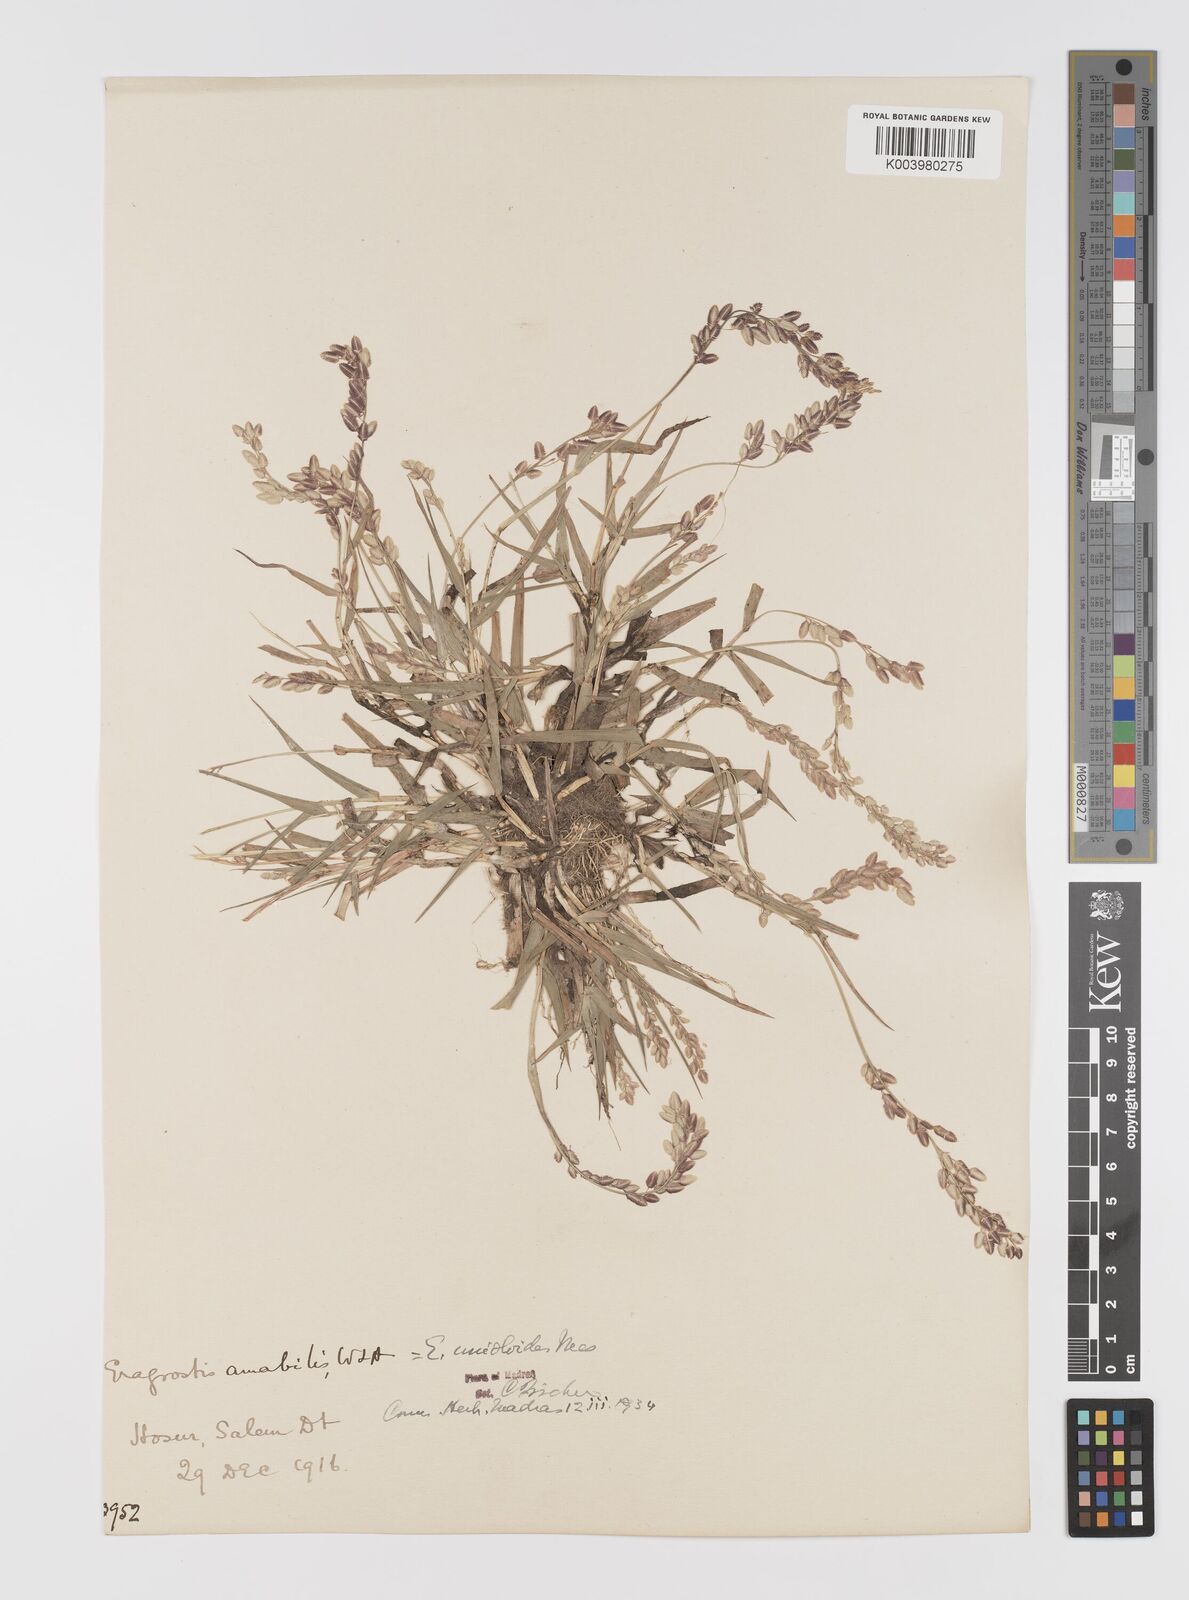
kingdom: Plantae
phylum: Tracheophyta
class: Liliopsida
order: Poales
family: Poaceae
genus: Eragrostis
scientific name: Eragrostis unioloides
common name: Chinese lovegrass
